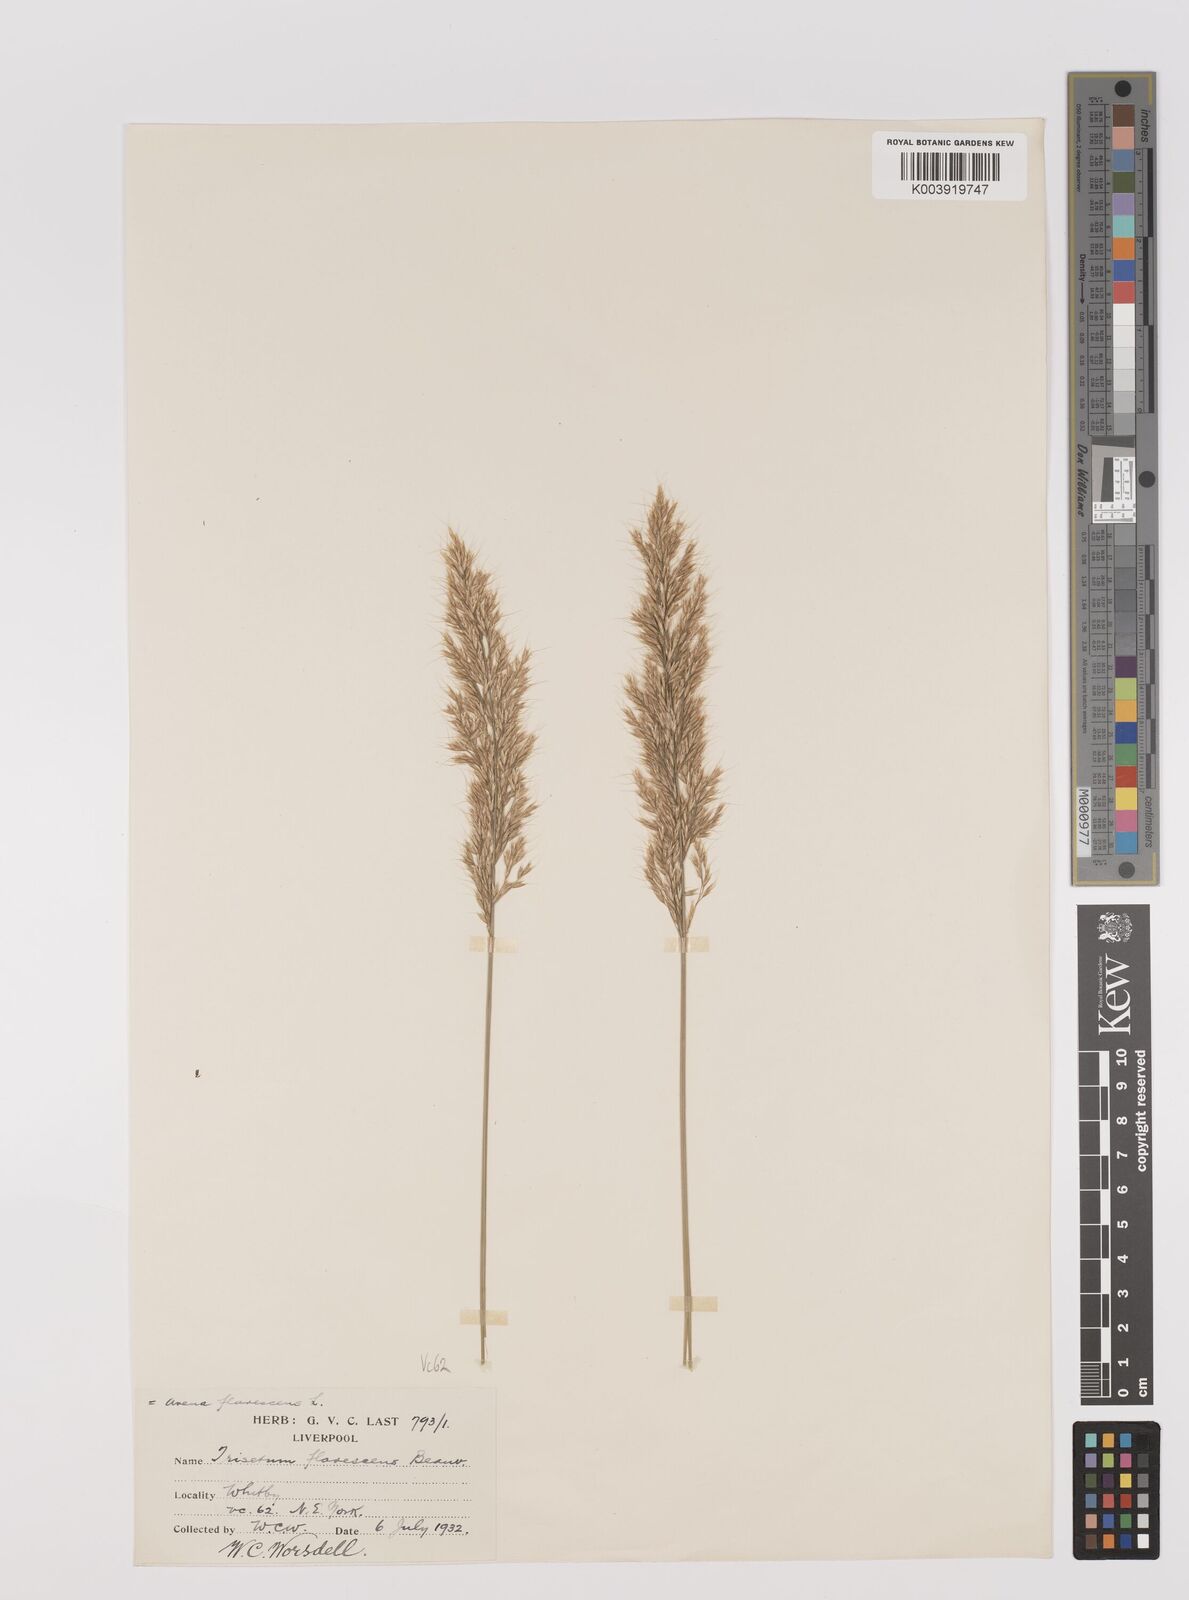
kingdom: Plantae
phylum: Tracheophyta
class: Liliopsida
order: Poales
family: Poaceae
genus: Trisetum
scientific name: Trisetum flavescens
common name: Yellow oat-grass
